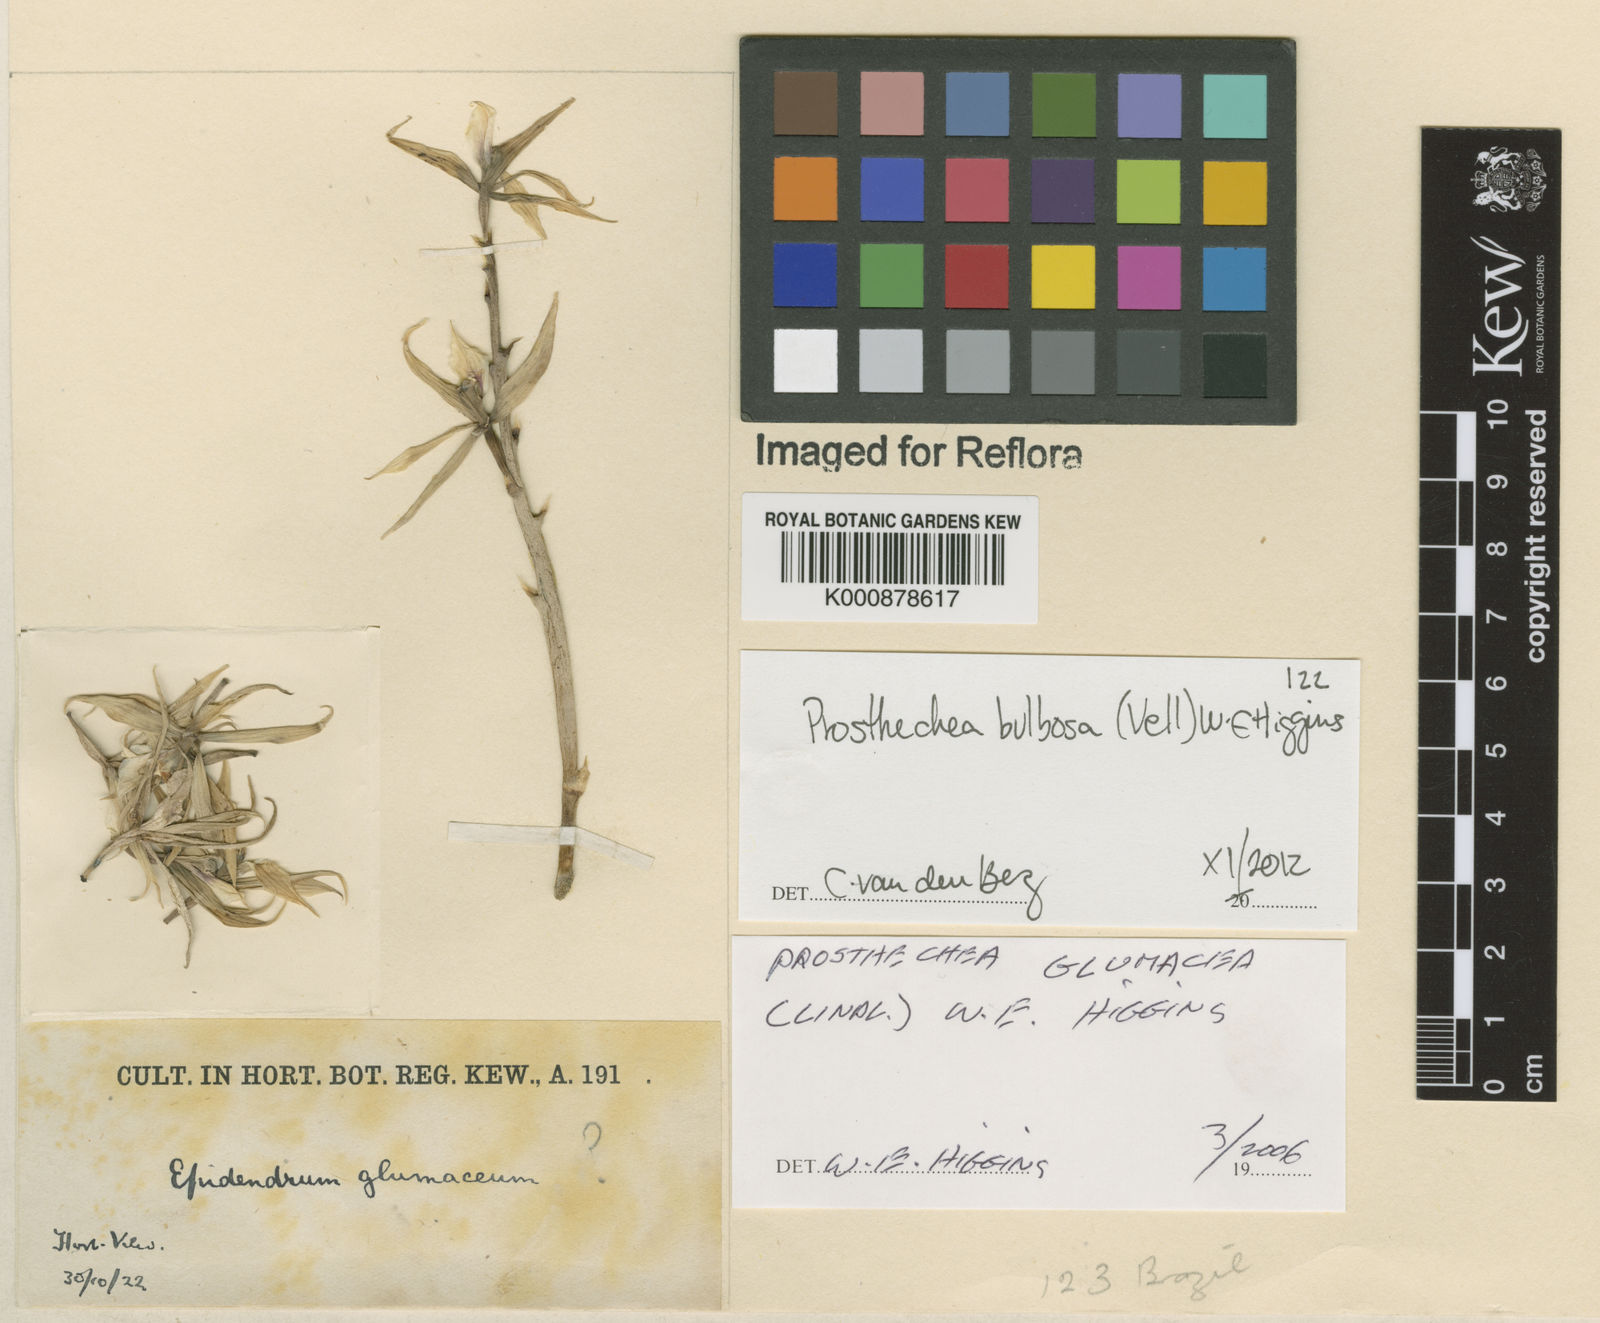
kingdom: Plantae
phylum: Tracheophyta
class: Liliopsida
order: Asparagales
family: Orchidaceae
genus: Prosthechea
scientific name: Prosthechea bulbosa
